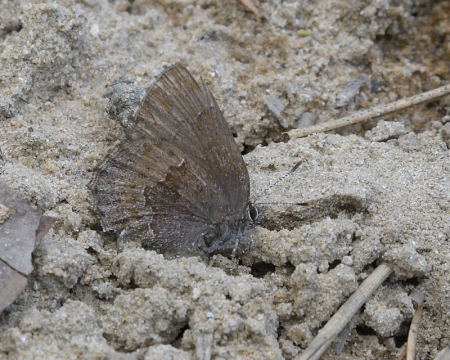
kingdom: Animalia
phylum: Arthropoda
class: Insecta
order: Lepidoptera
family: Lycaenidae
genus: Callophrys
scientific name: Callophrys polios
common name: Hoary Elfin
